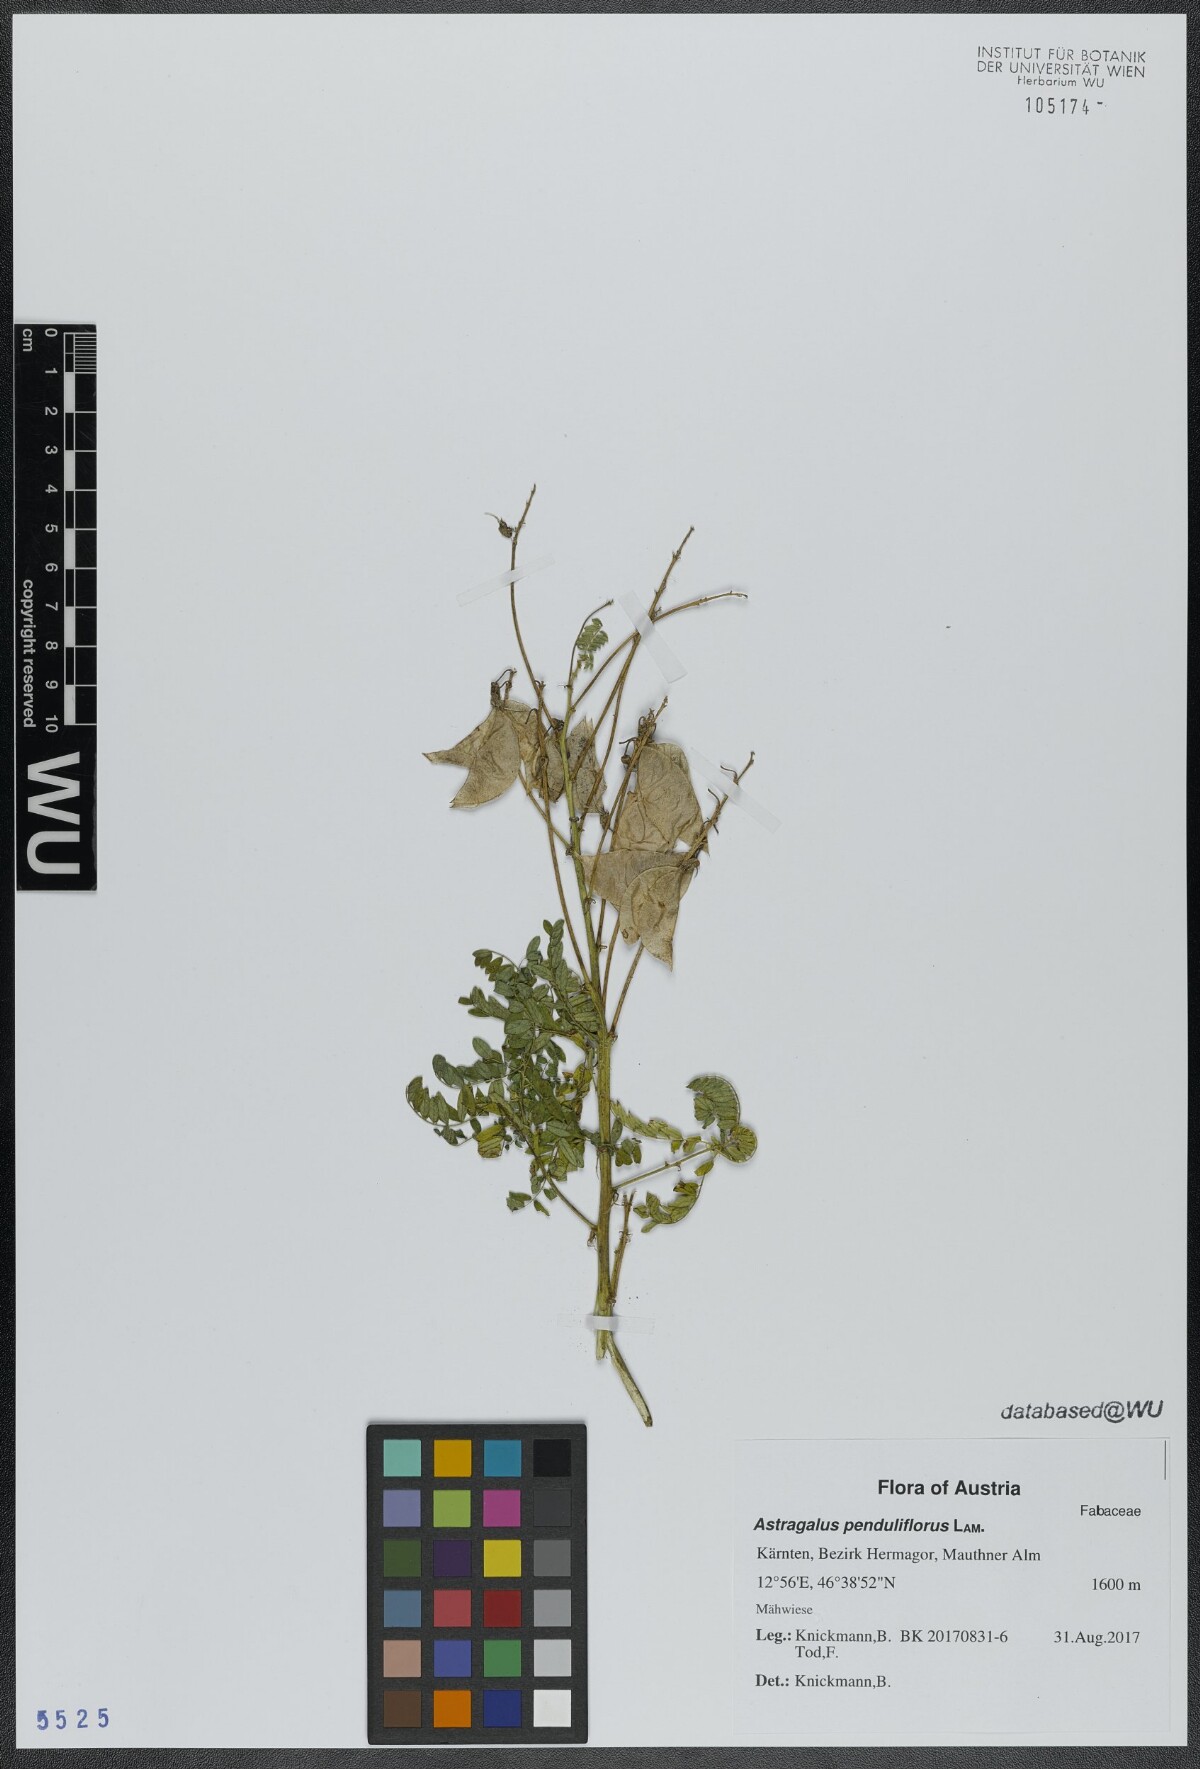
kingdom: Plantae
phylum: Tracheophyta
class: Magnoliopsida
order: Fabales
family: Fabaceae
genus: Astragalus
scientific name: Astragalus penduliflorus
